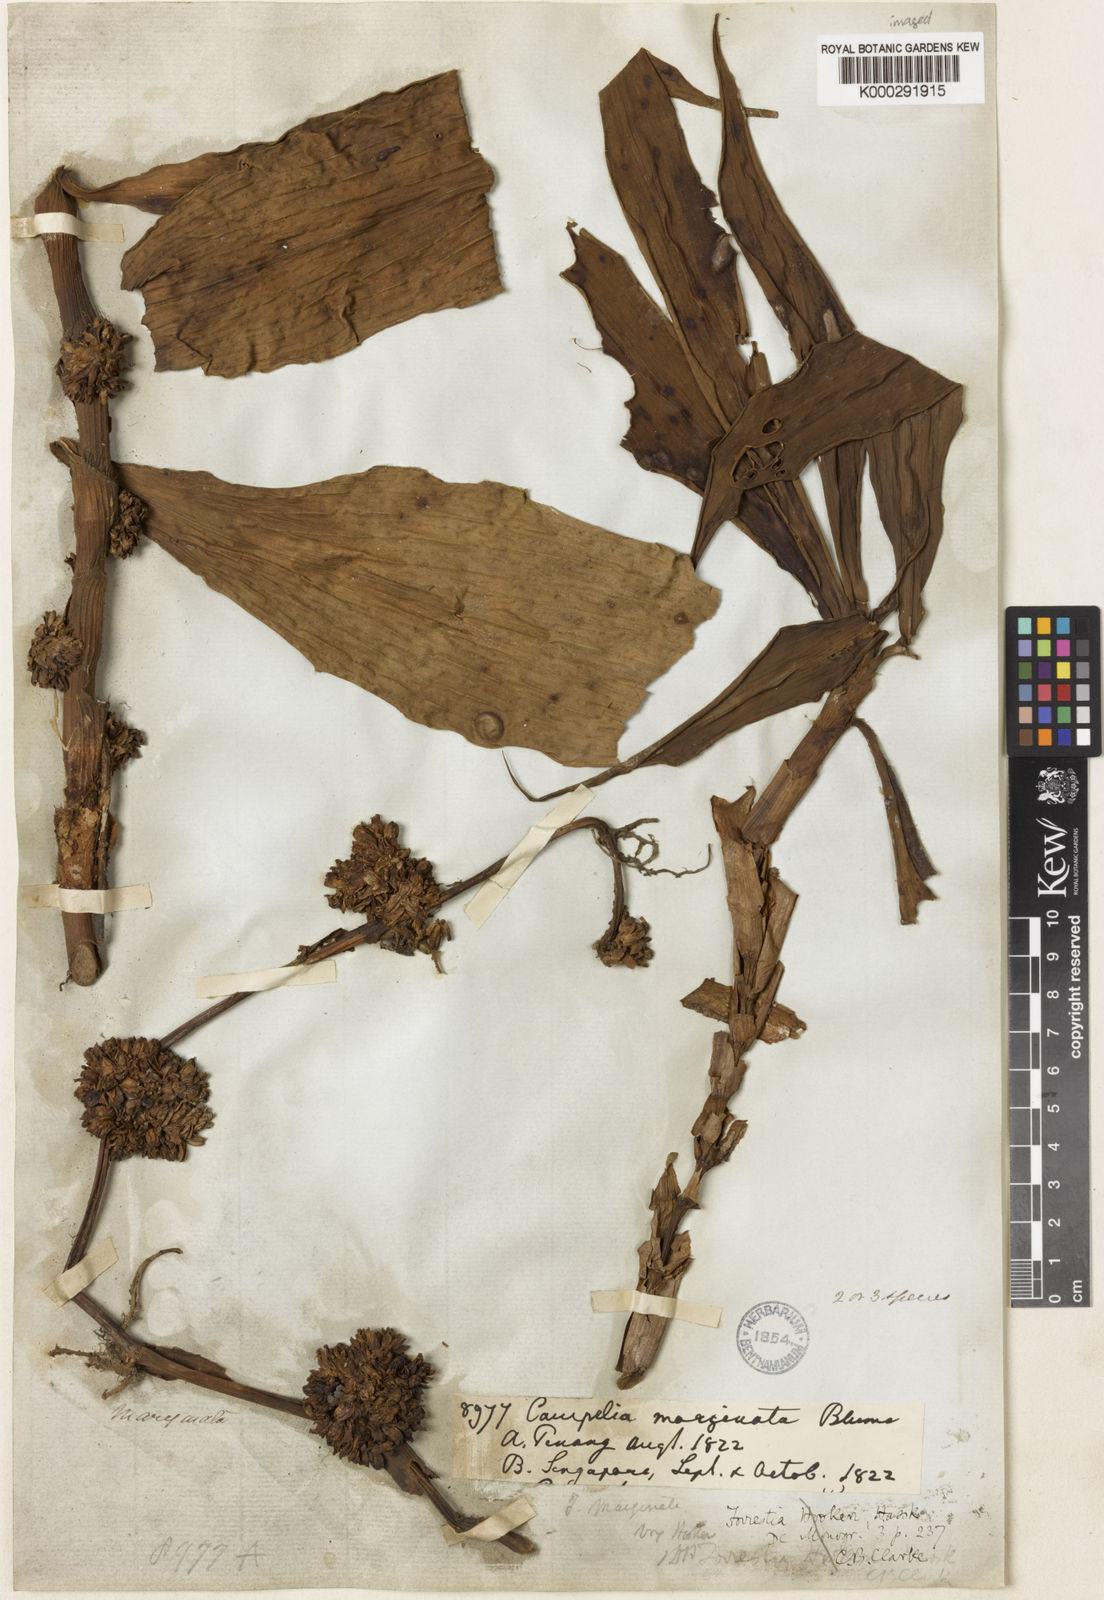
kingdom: Plantae
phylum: Tracheophyta
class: Liliopsida
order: Commelinales
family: Commelinaceae
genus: Amischotolype
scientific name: Amischotolype glabrata
